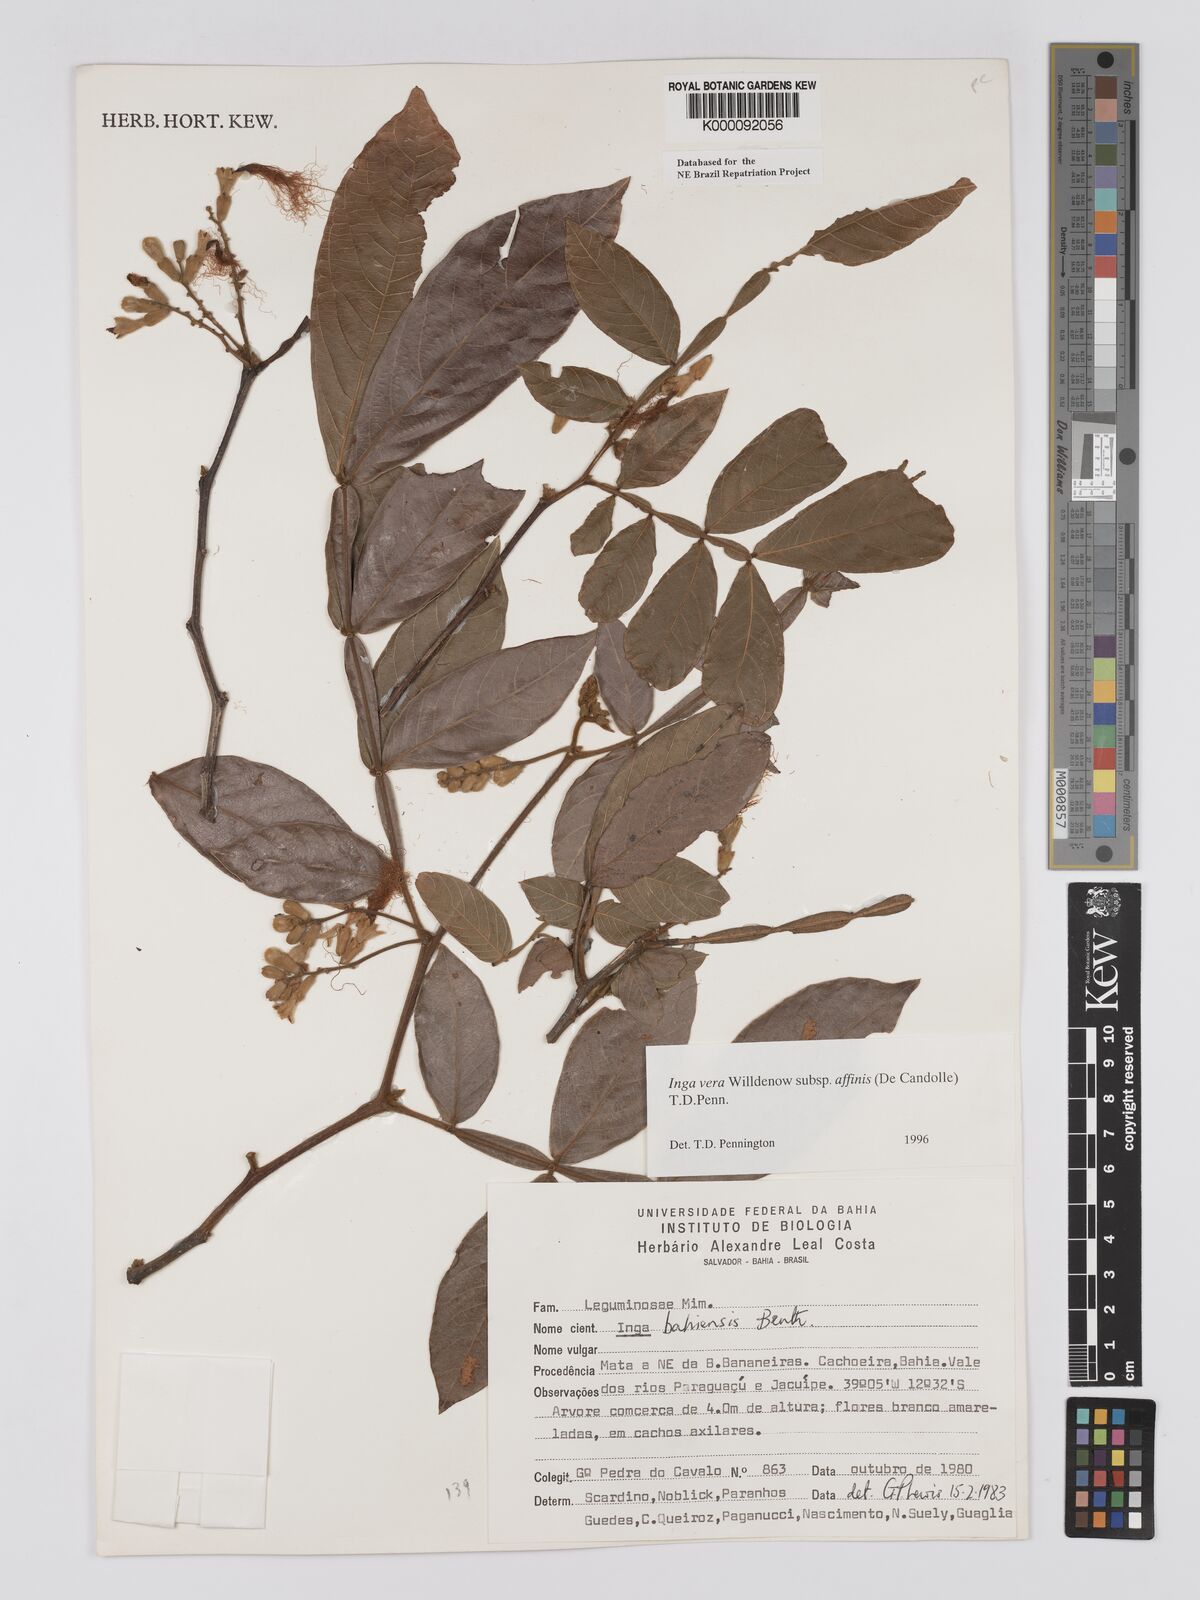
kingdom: Plantae
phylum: Tracheophyta
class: Magnoliopsida
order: Fabales
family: Fabaceae
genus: Inga
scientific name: Inga affinis
